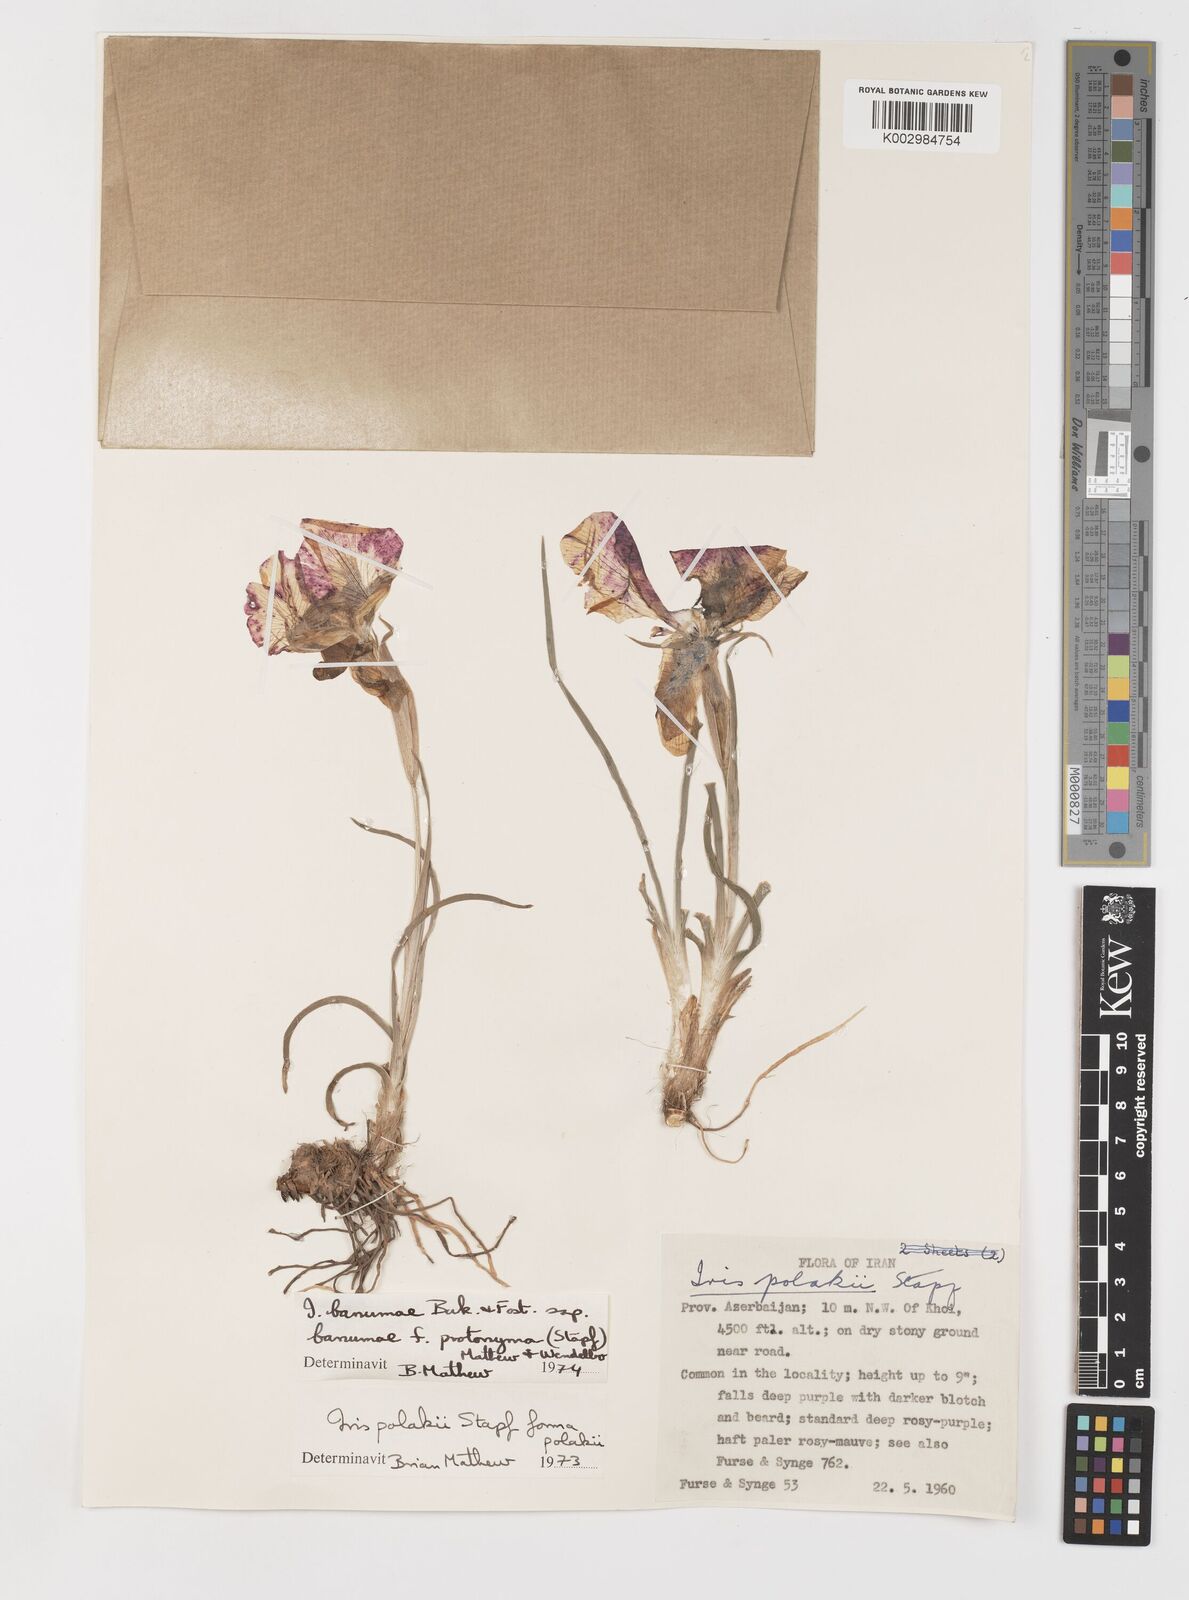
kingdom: Plantae
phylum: Tracheophyta
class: Liliopsida
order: Asparagales
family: Iridaceae
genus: Iris
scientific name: Iris polakii
